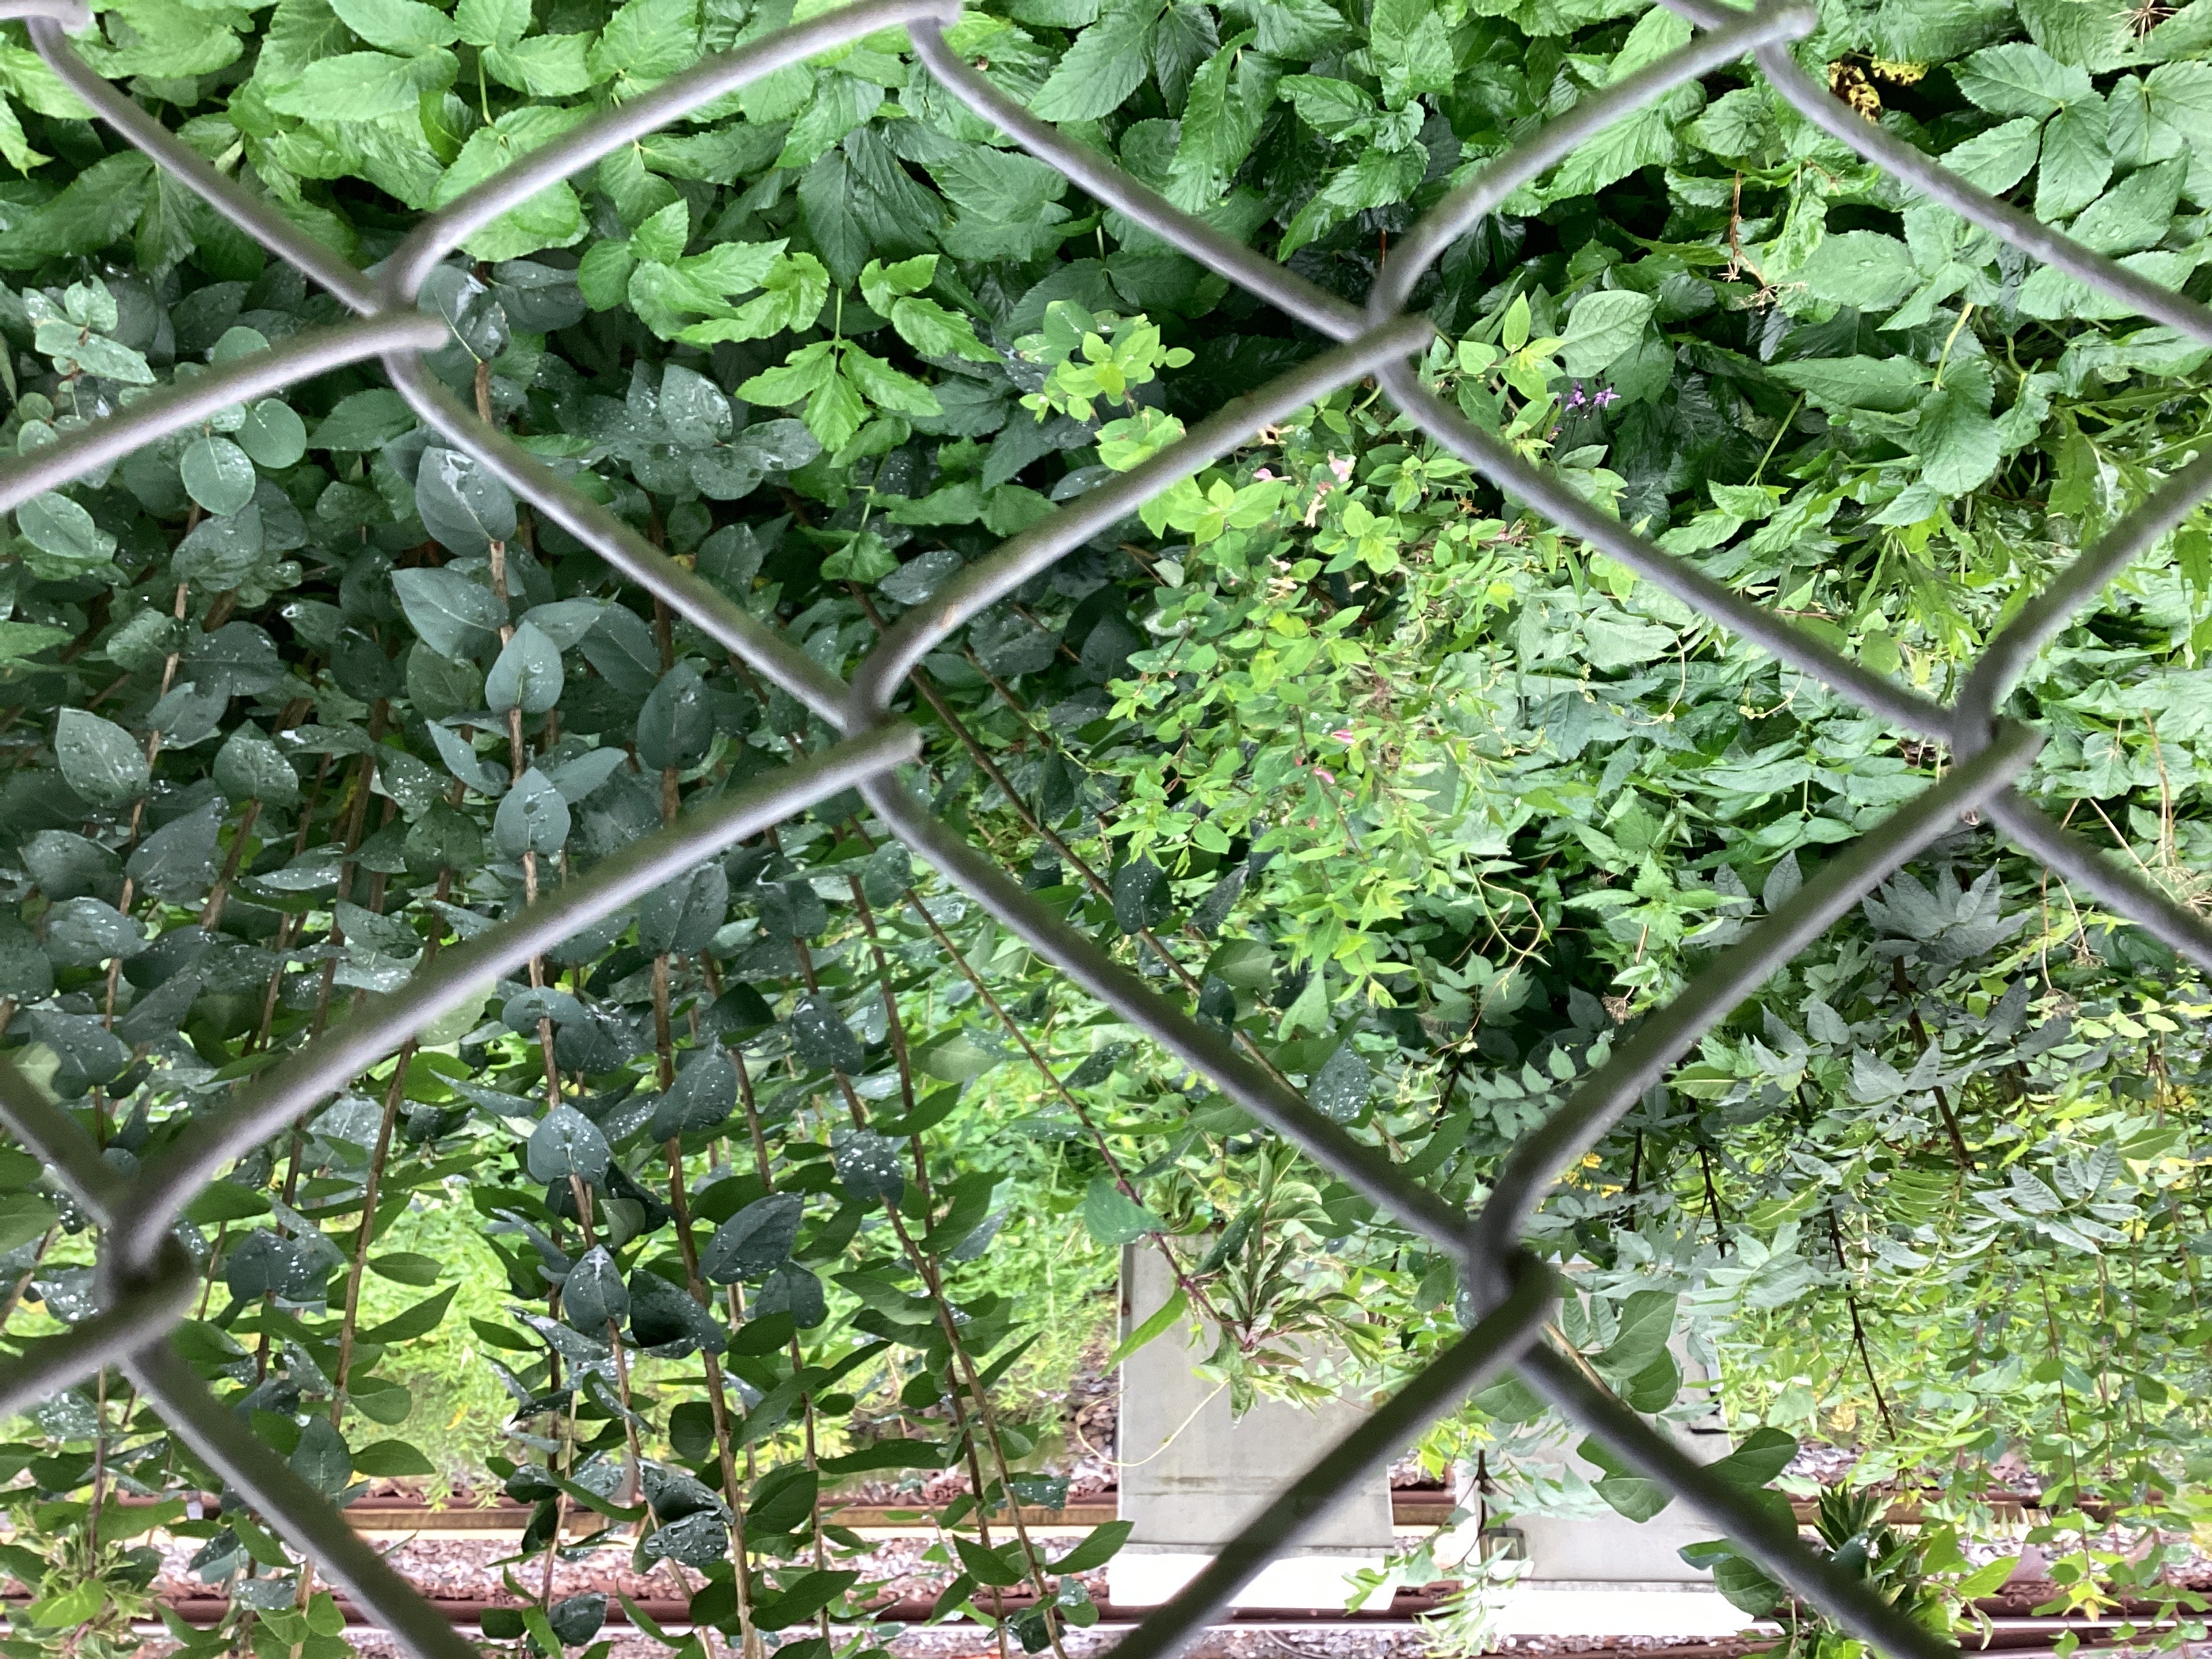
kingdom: Plantae
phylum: Tracheophyta
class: Magnoliopsida
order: Dipsacales
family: Caprifoliaceae
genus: Lonicera
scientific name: Lonicera tatarica
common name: tatarleddved
